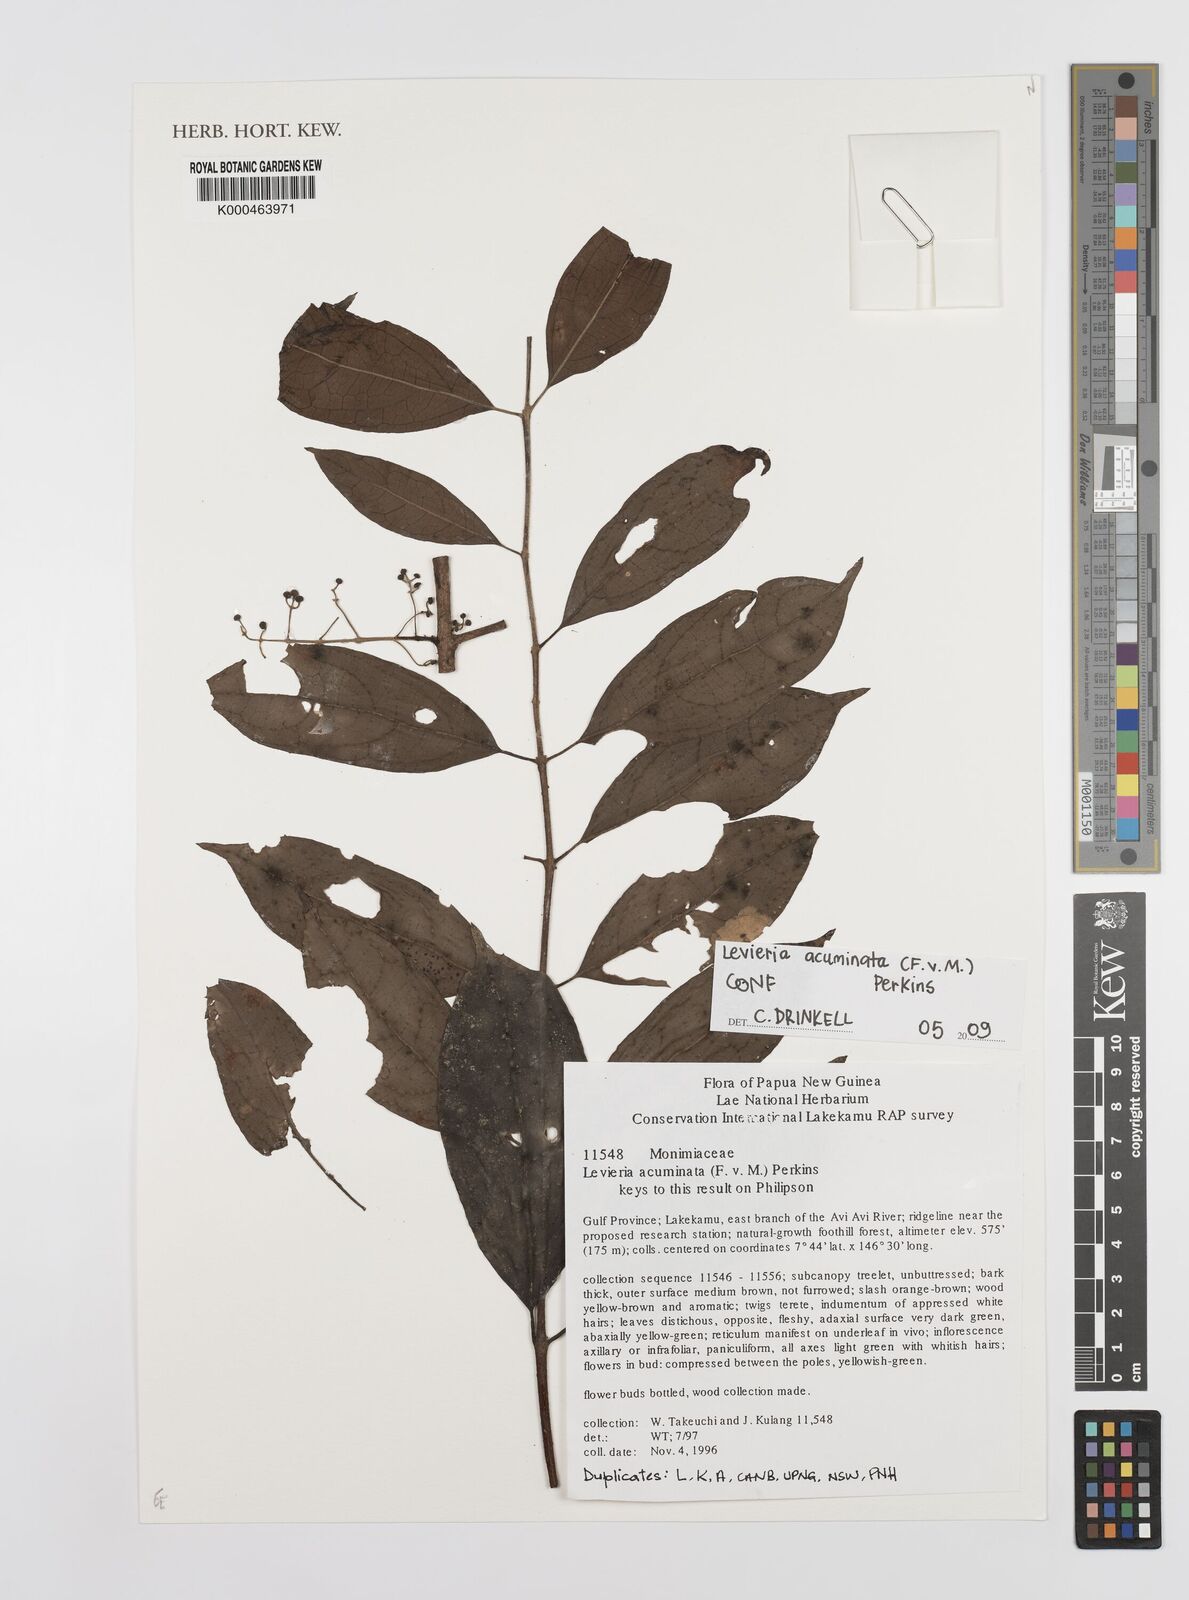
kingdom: Plantae
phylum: Tracheophyta
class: Magnoliopsida
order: Laurales
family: Monimiaceae
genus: Levieria
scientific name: Levieria acuminata
